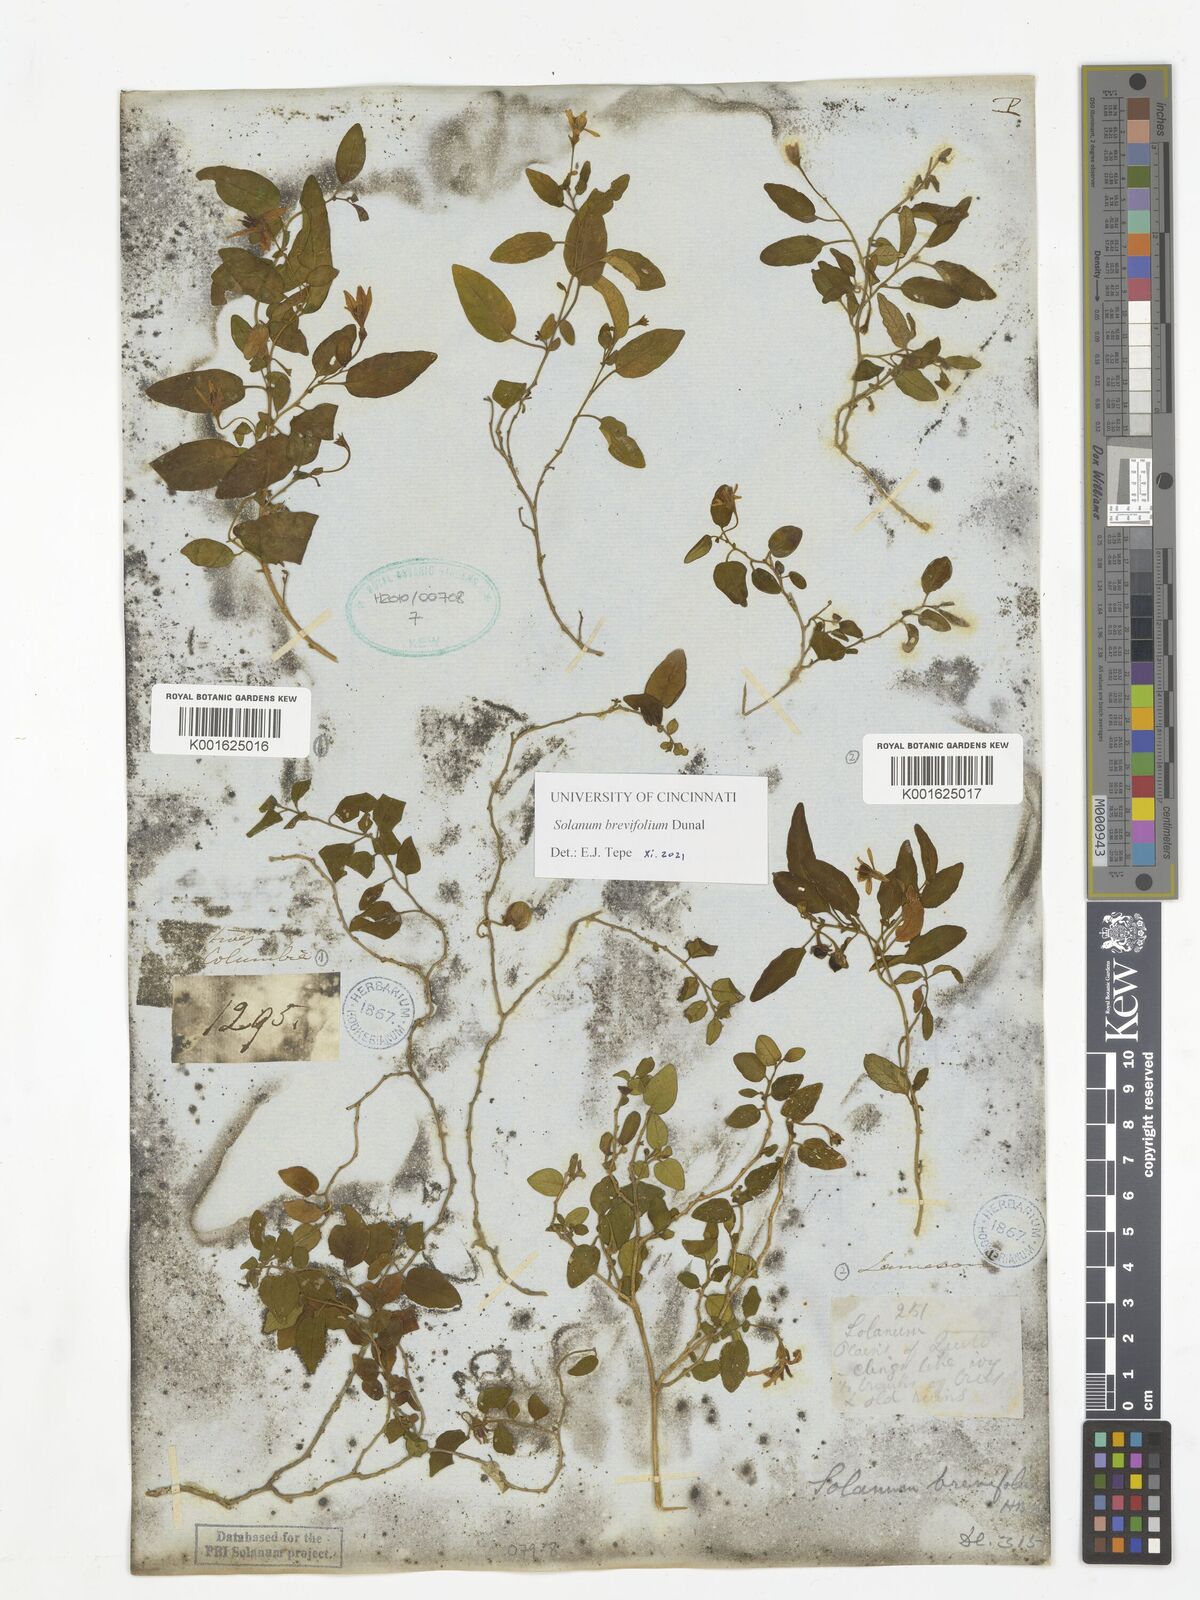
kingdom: Plantae
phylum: Tracheophyta
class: Magnoliopsida
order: Solanales
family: Solanaceae
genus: Solanum
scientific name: Solanum brevifolium
